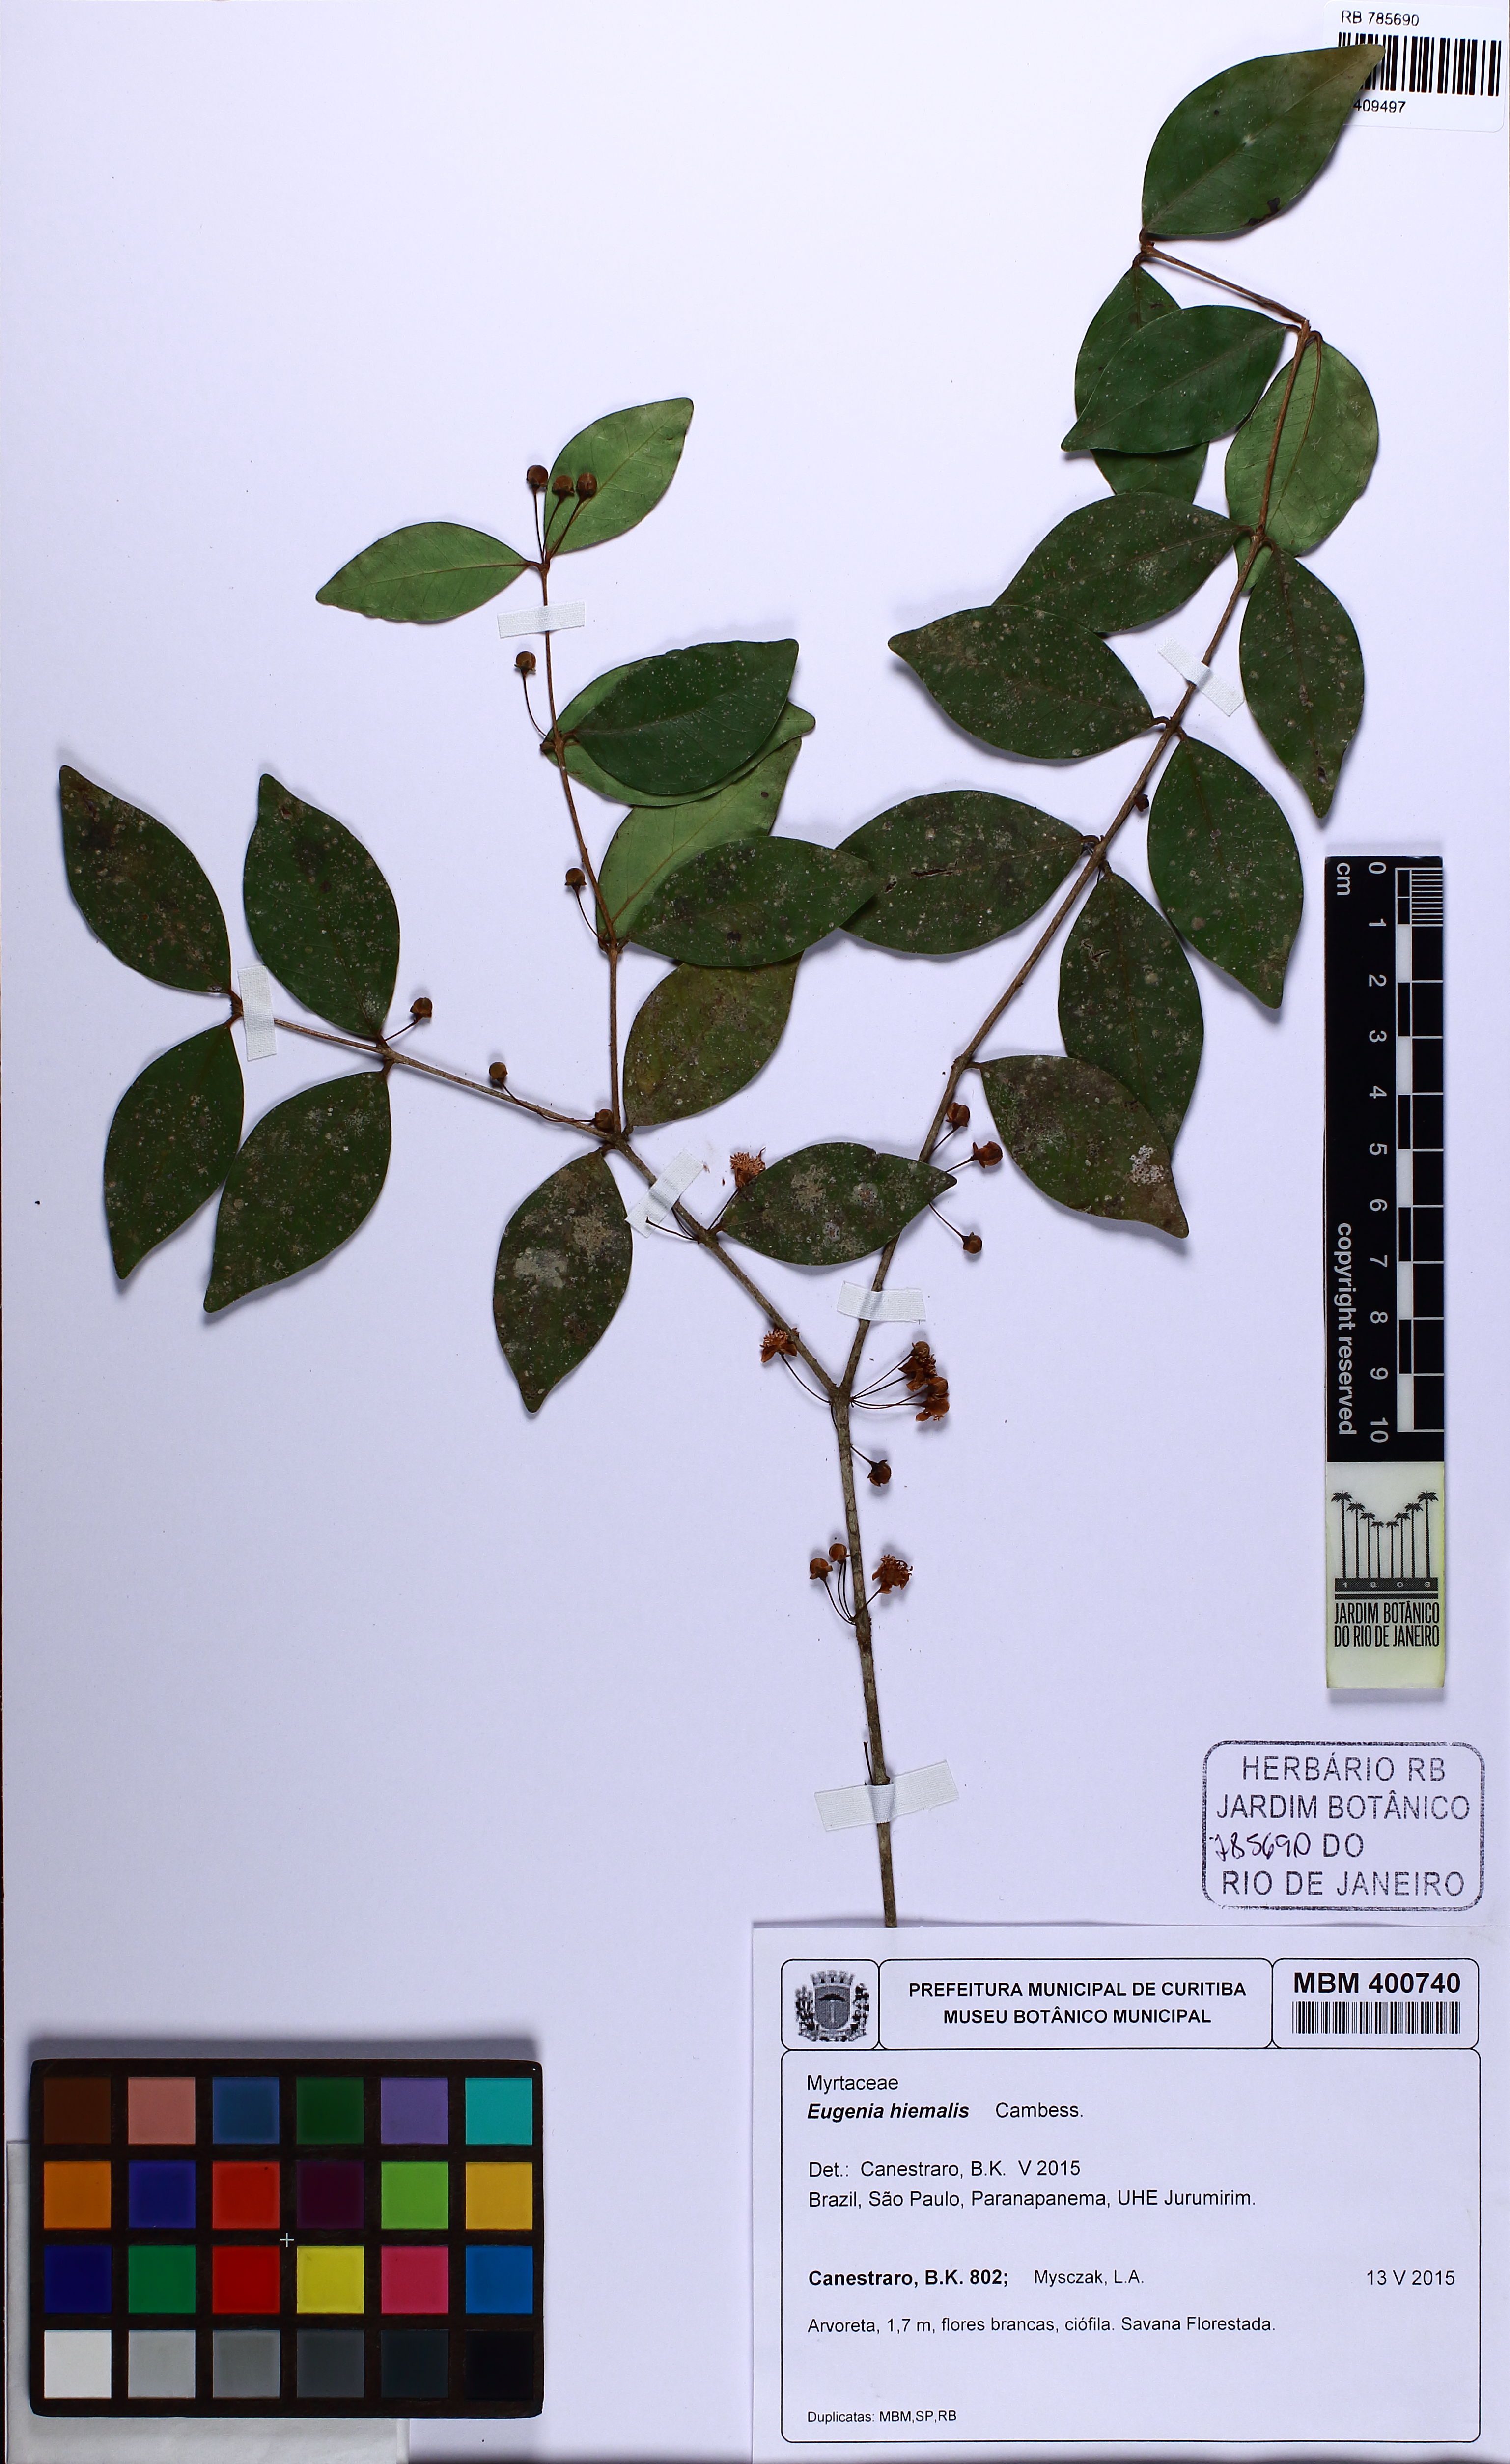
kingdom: Plantae
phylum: Tracheophyta
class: Magnoliopsida
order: Myrtales
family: Myrtaceae
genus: Eugenia
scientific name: Eugenia hiemalis
